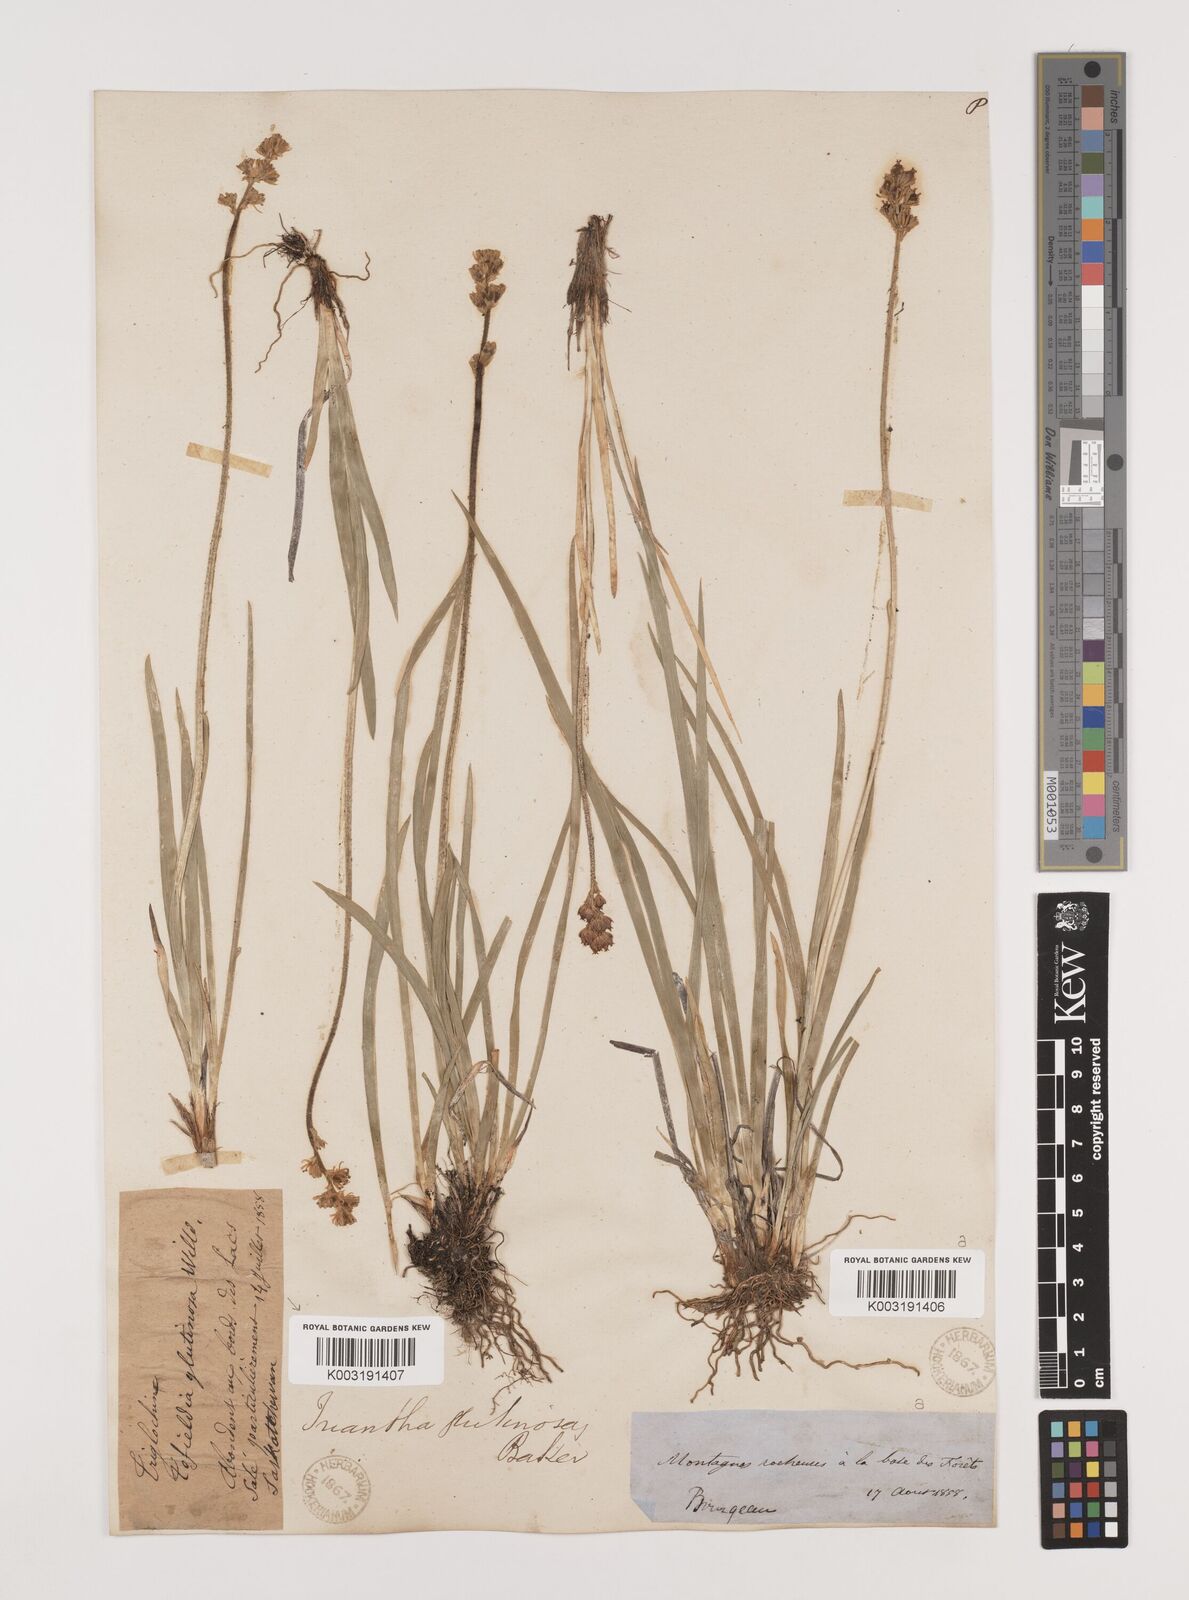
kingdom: Plantae
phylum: Tracheophyta
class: Liliopsida
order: Alismatales
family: Tofieldiaceae
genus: Triantha
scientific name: Triantha glutinosa
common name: Glutinous tofieldia
